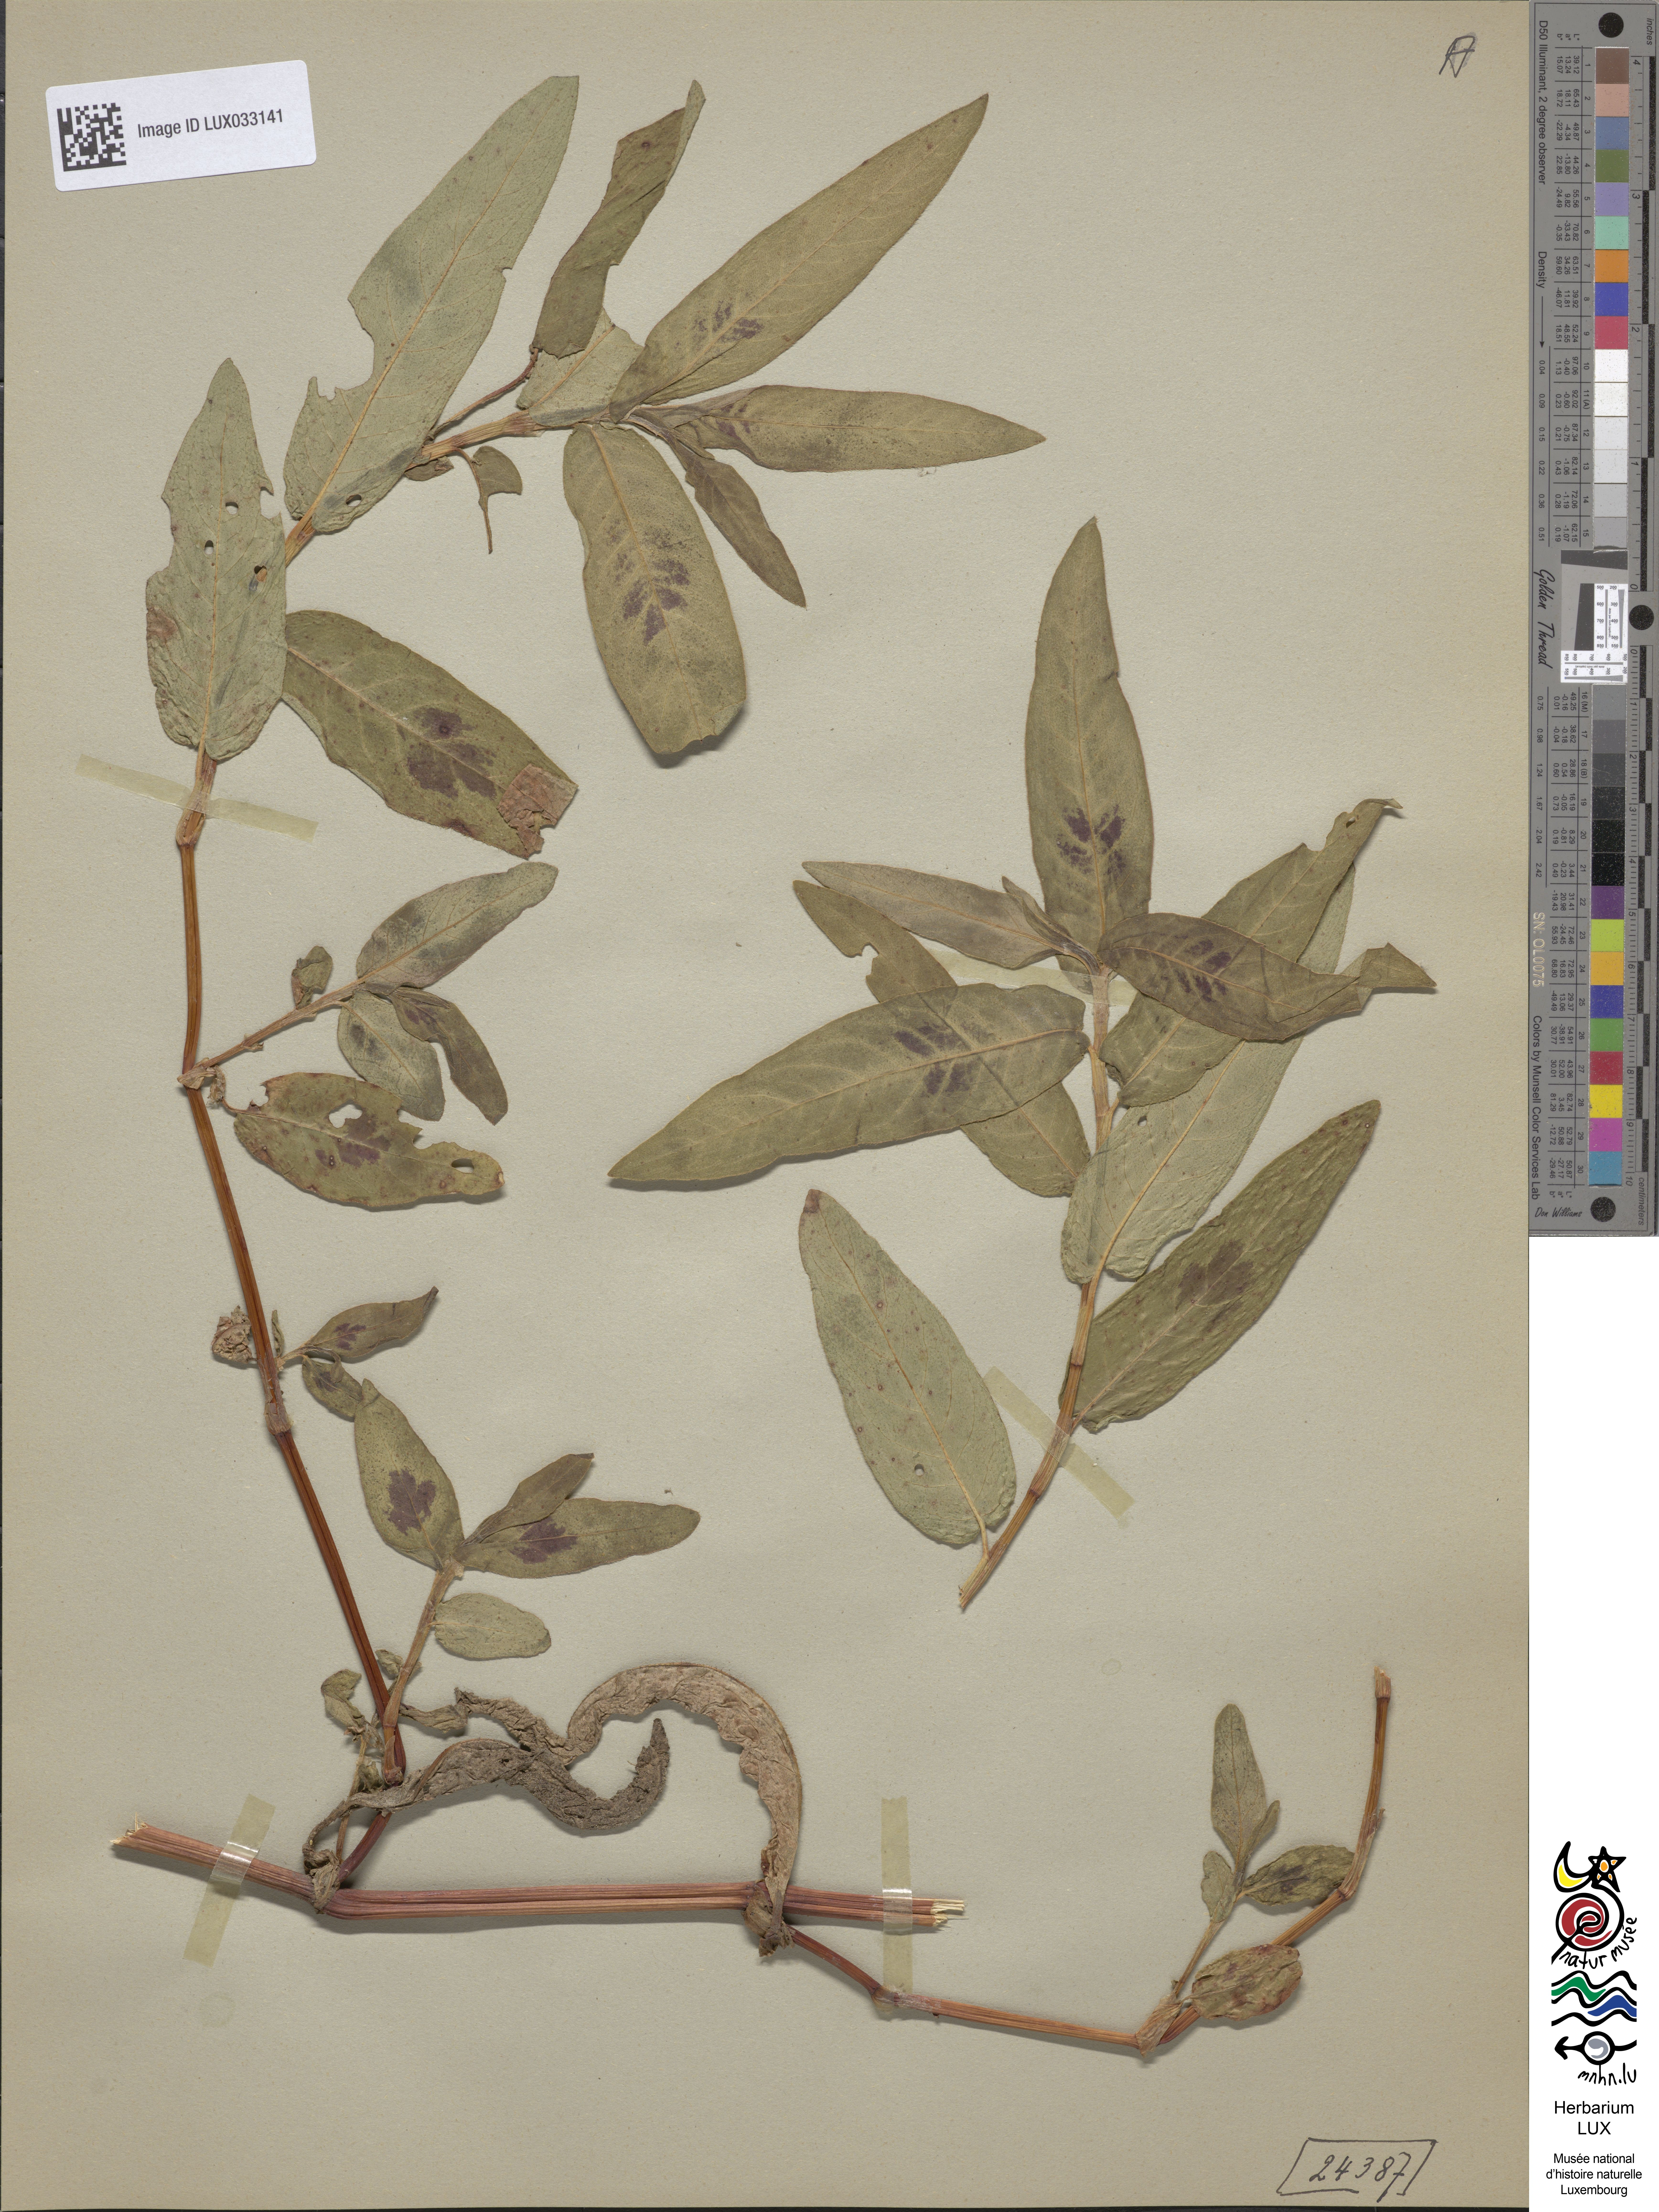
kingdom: Plantae
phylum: Tracheophyta
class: Magnoliopsida
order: Caryophyllales
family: Polygonaceae
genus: Persicaria
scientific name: Persicaria amphibia
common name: Amphibious bistort
